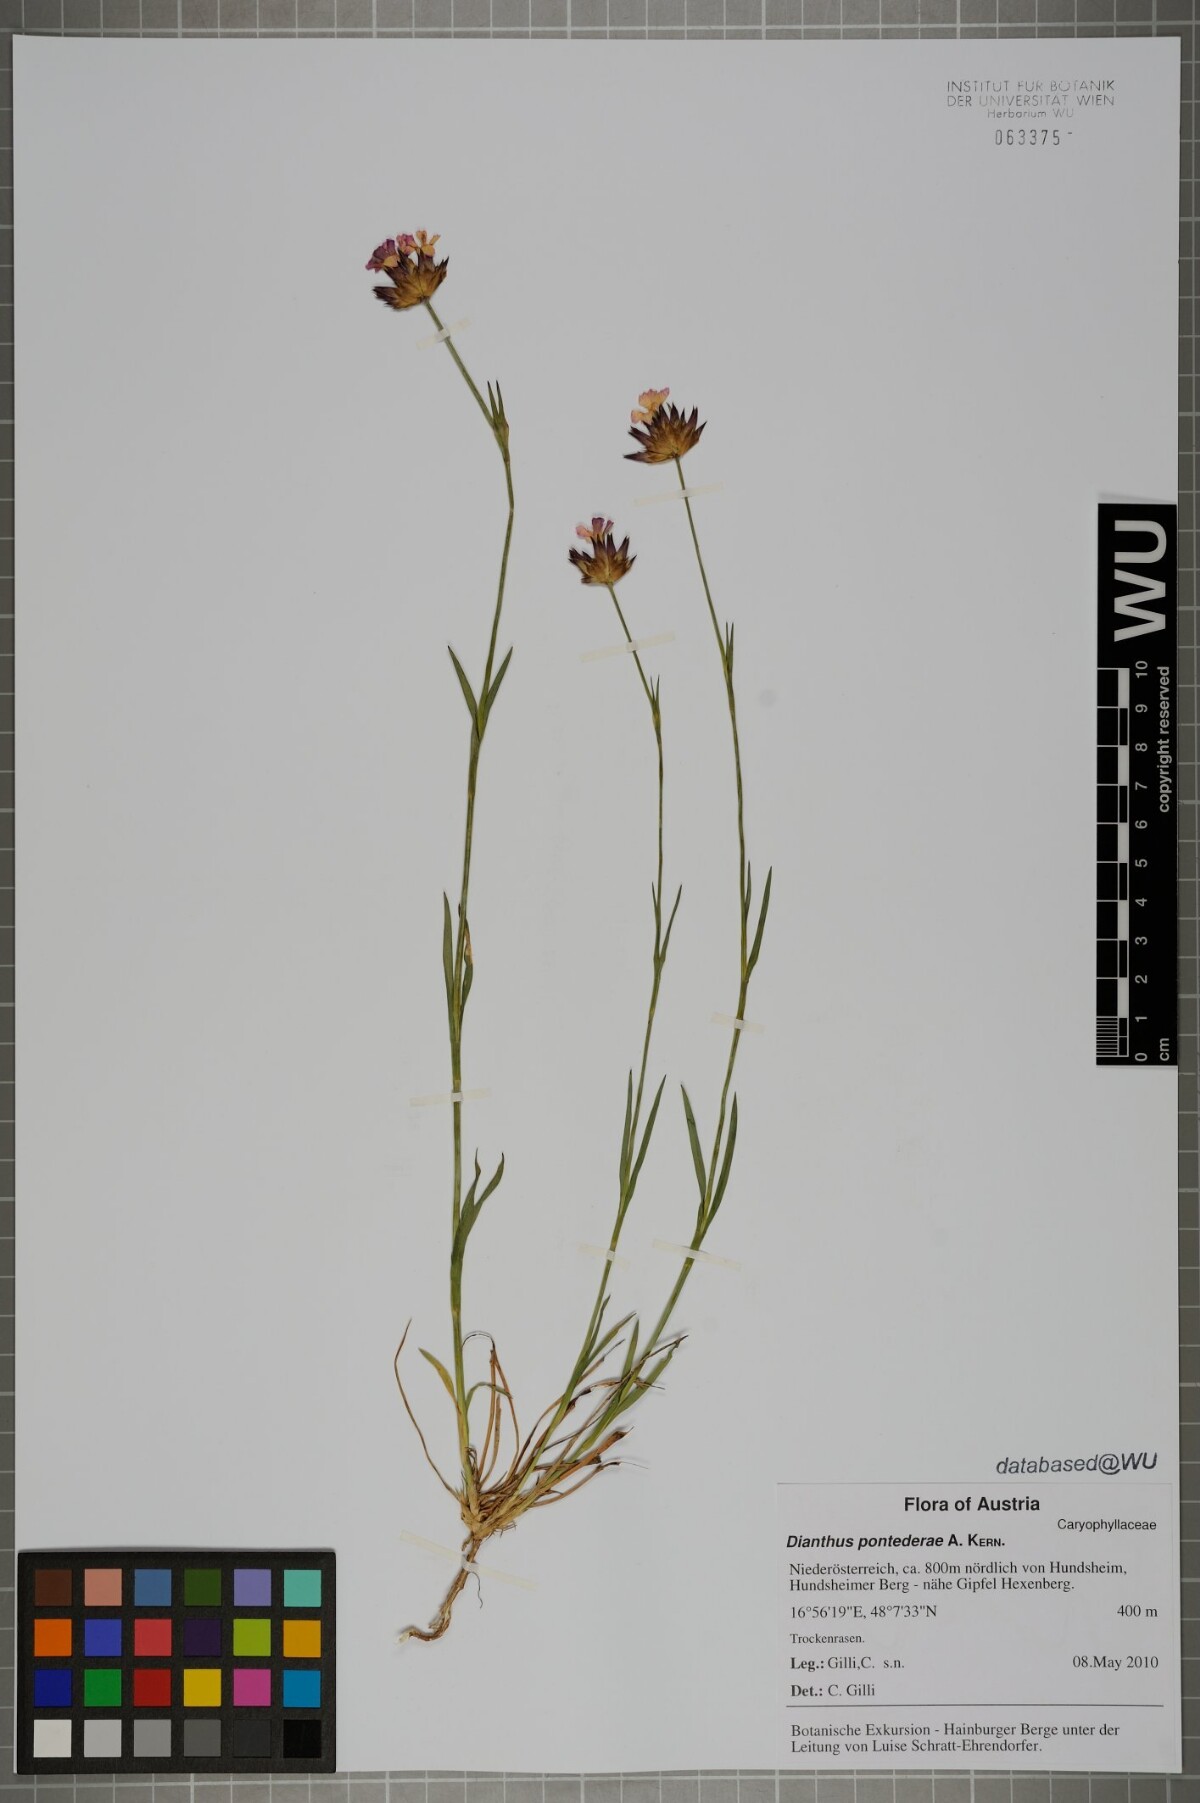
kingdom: Plantae
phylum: Tracheophyta
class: Magnoliopsida
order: Caryophyllales
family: Caryophyllaceae
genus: Dianthus
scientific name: Dianthus pontederae
